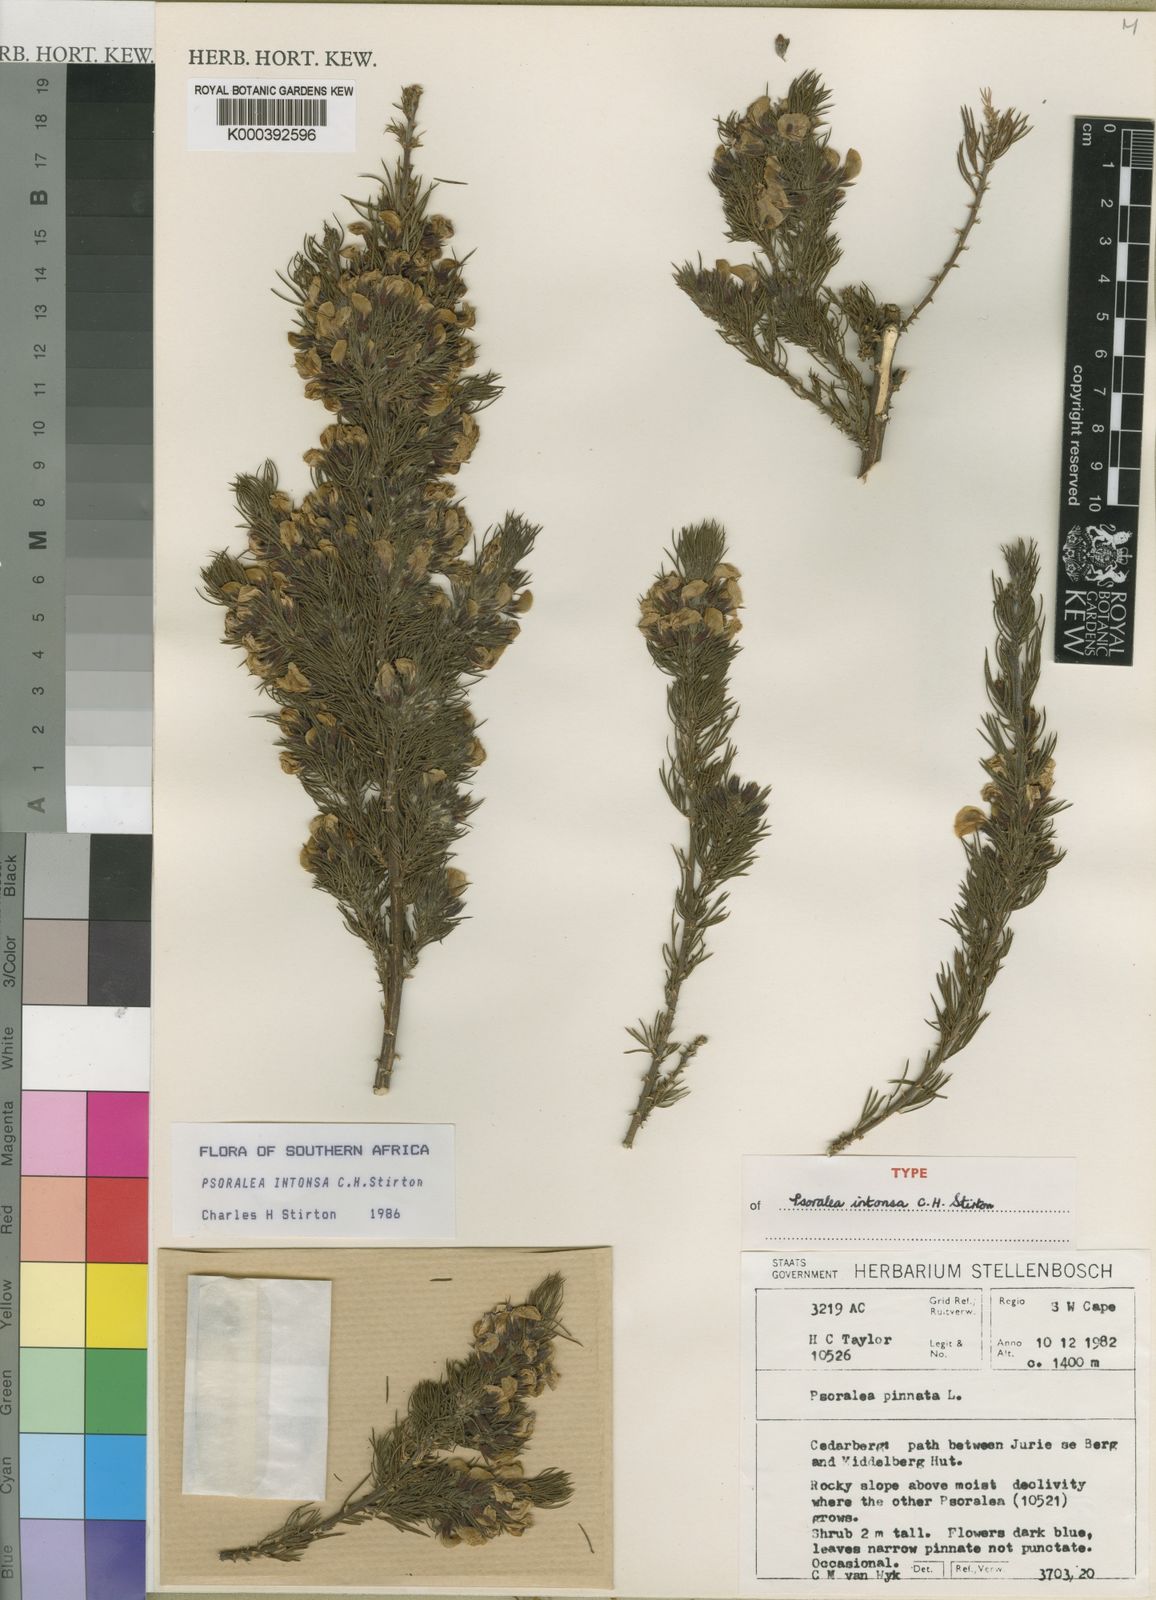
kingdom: Plantae
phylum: Tracheophyta
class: Magnoliopsida
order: Fabales
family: Fabaceae
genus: Psoralea
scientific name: Psoralea
